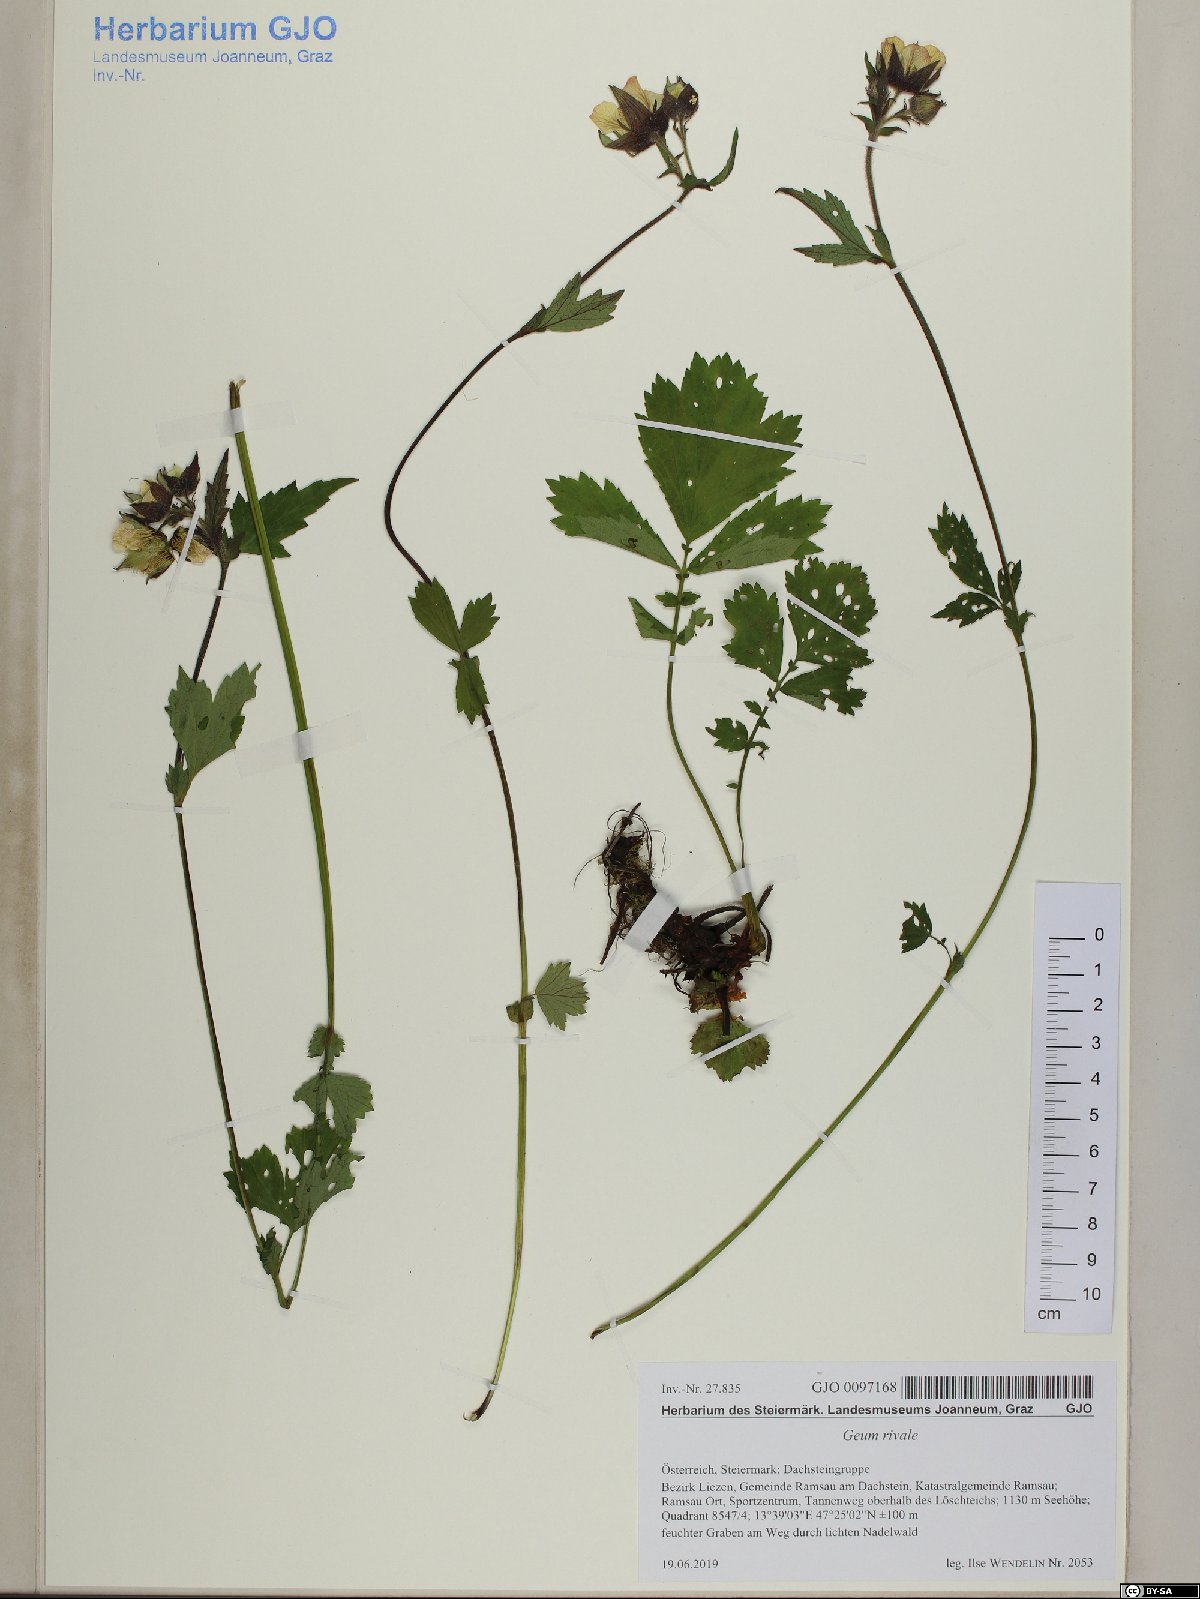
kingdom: Plantae
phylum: Tracheophyta
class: Magnoliopsida
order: Rosales
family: Rosaceae
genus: Geum
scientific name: Geum rivale
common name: Water avens
